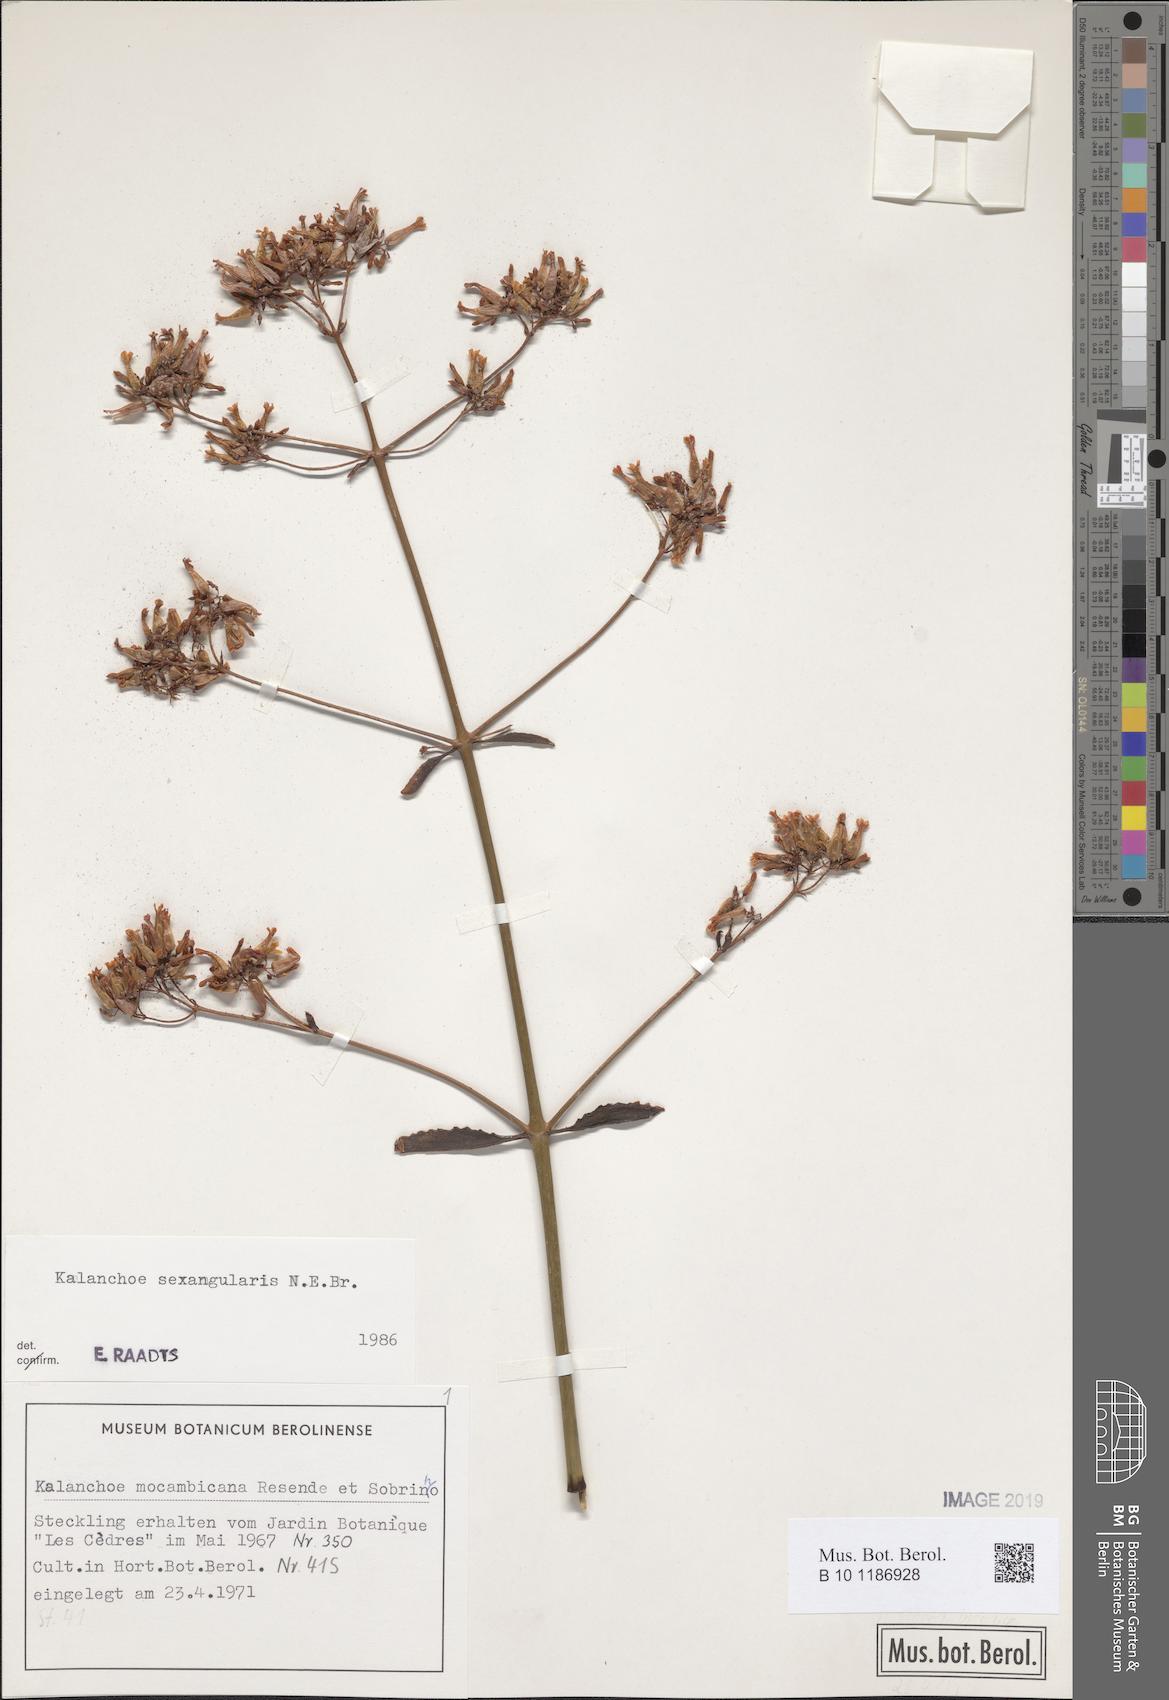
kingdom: Plantae
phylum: Tracheophyta
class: Magnoliopsida
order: Saxifragales
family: Crassulaceae
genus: Kalanchoe
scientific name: Kalanchoe sexangularis
